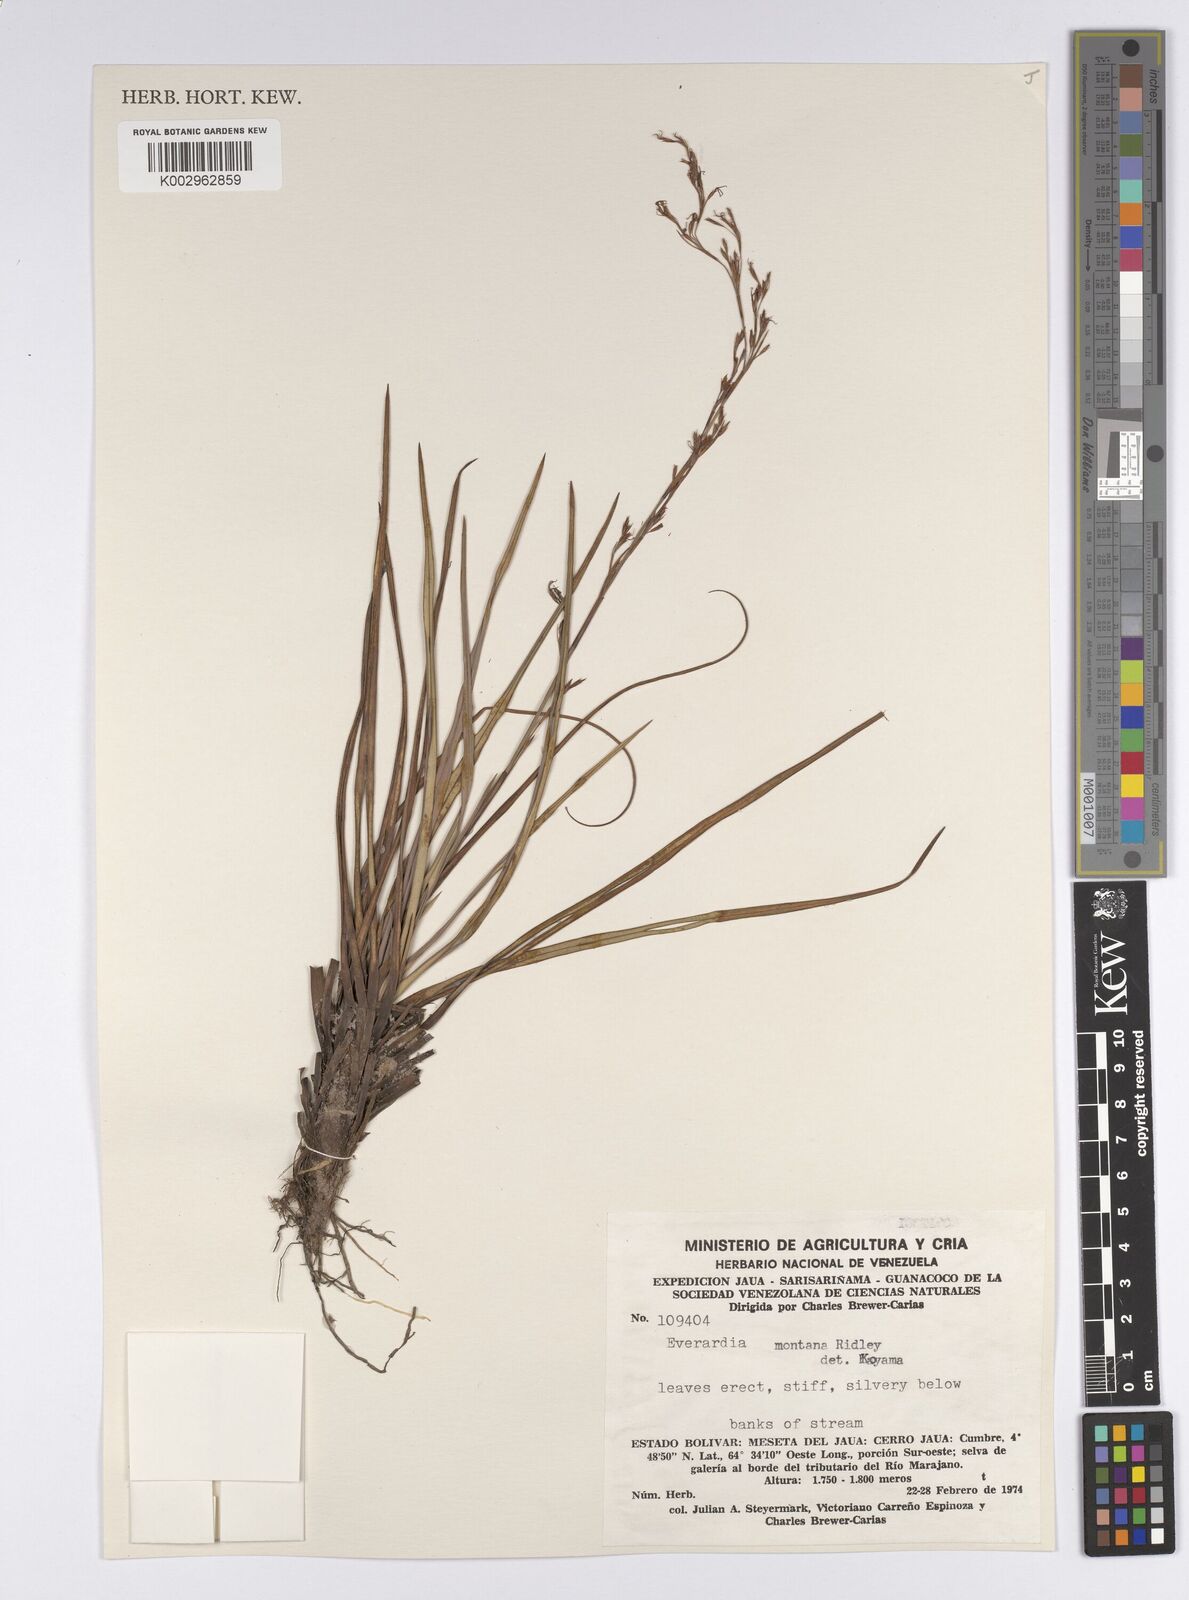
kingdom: Plantae
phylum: Tracheophyta
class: Liliopsida
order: Poales
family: Cyperaceae
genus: Cephalocarpus
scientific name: Cephalocarpus montanus
